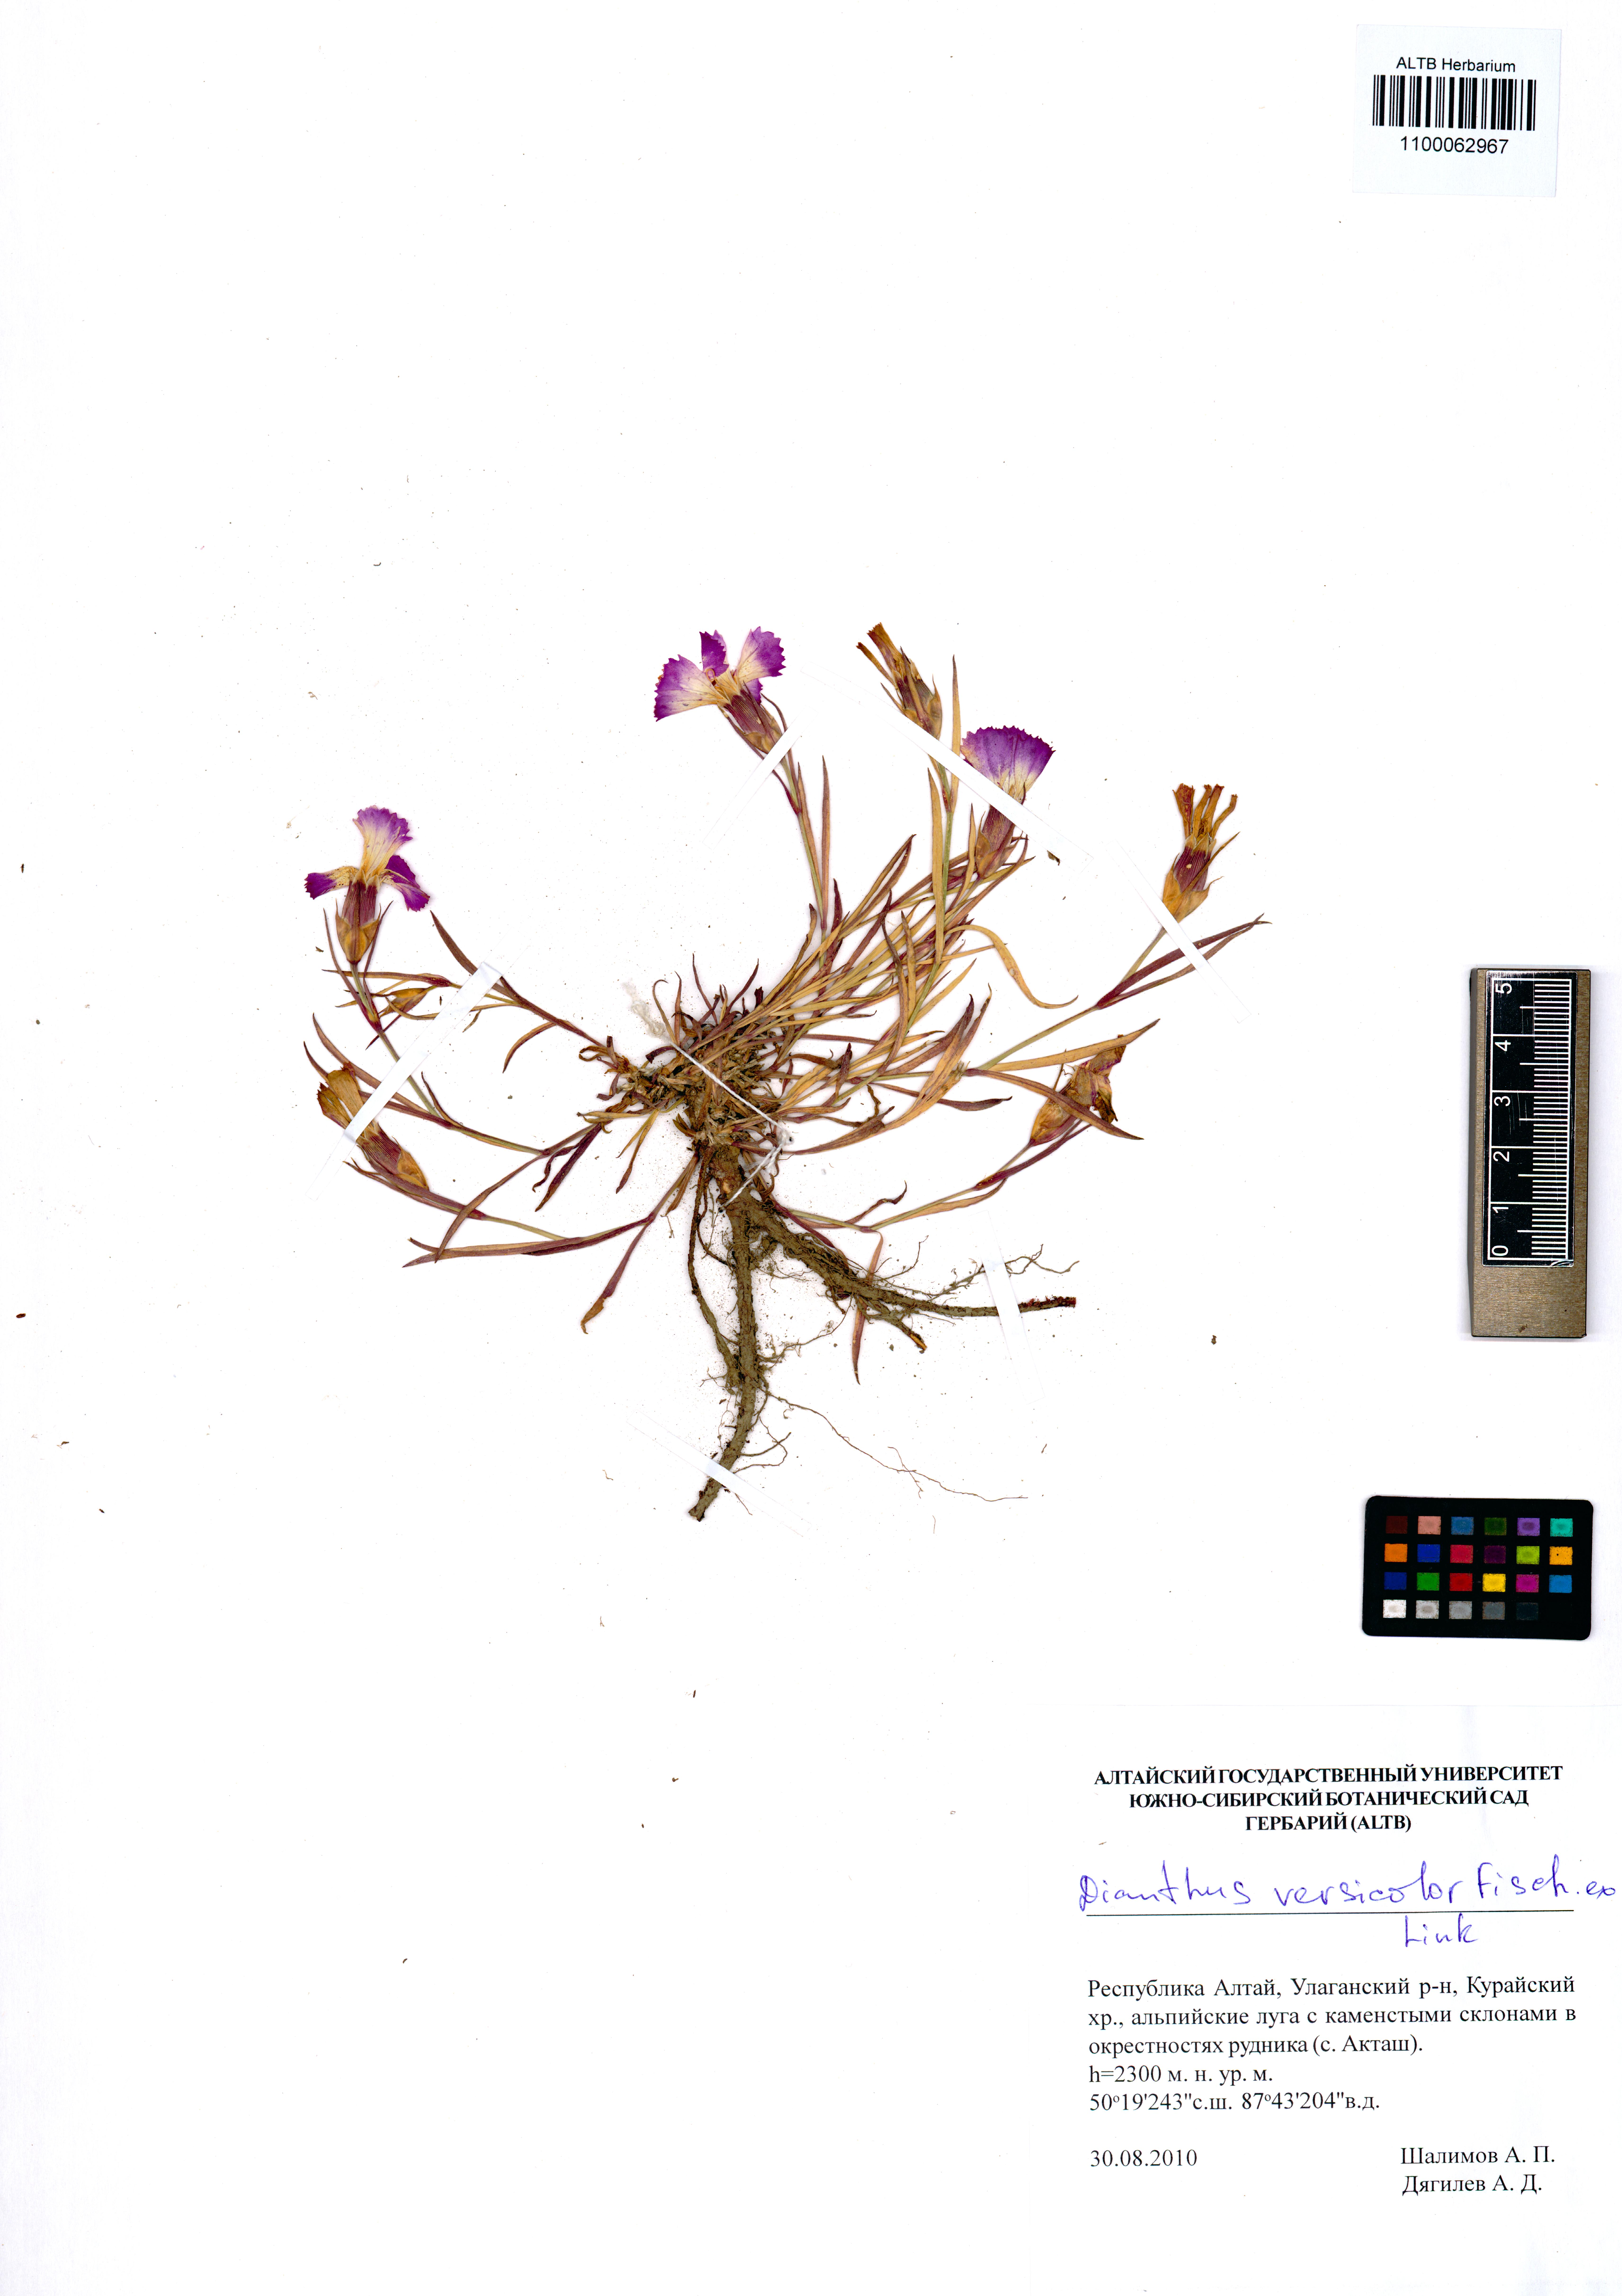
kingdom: Plantae
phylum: Tracheophyta
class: Magnoliopsida
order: Caryophyllales
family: Caryophyllaceae
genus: Dianthus
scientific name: Dianthus chinensis
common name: Rainbow pink
